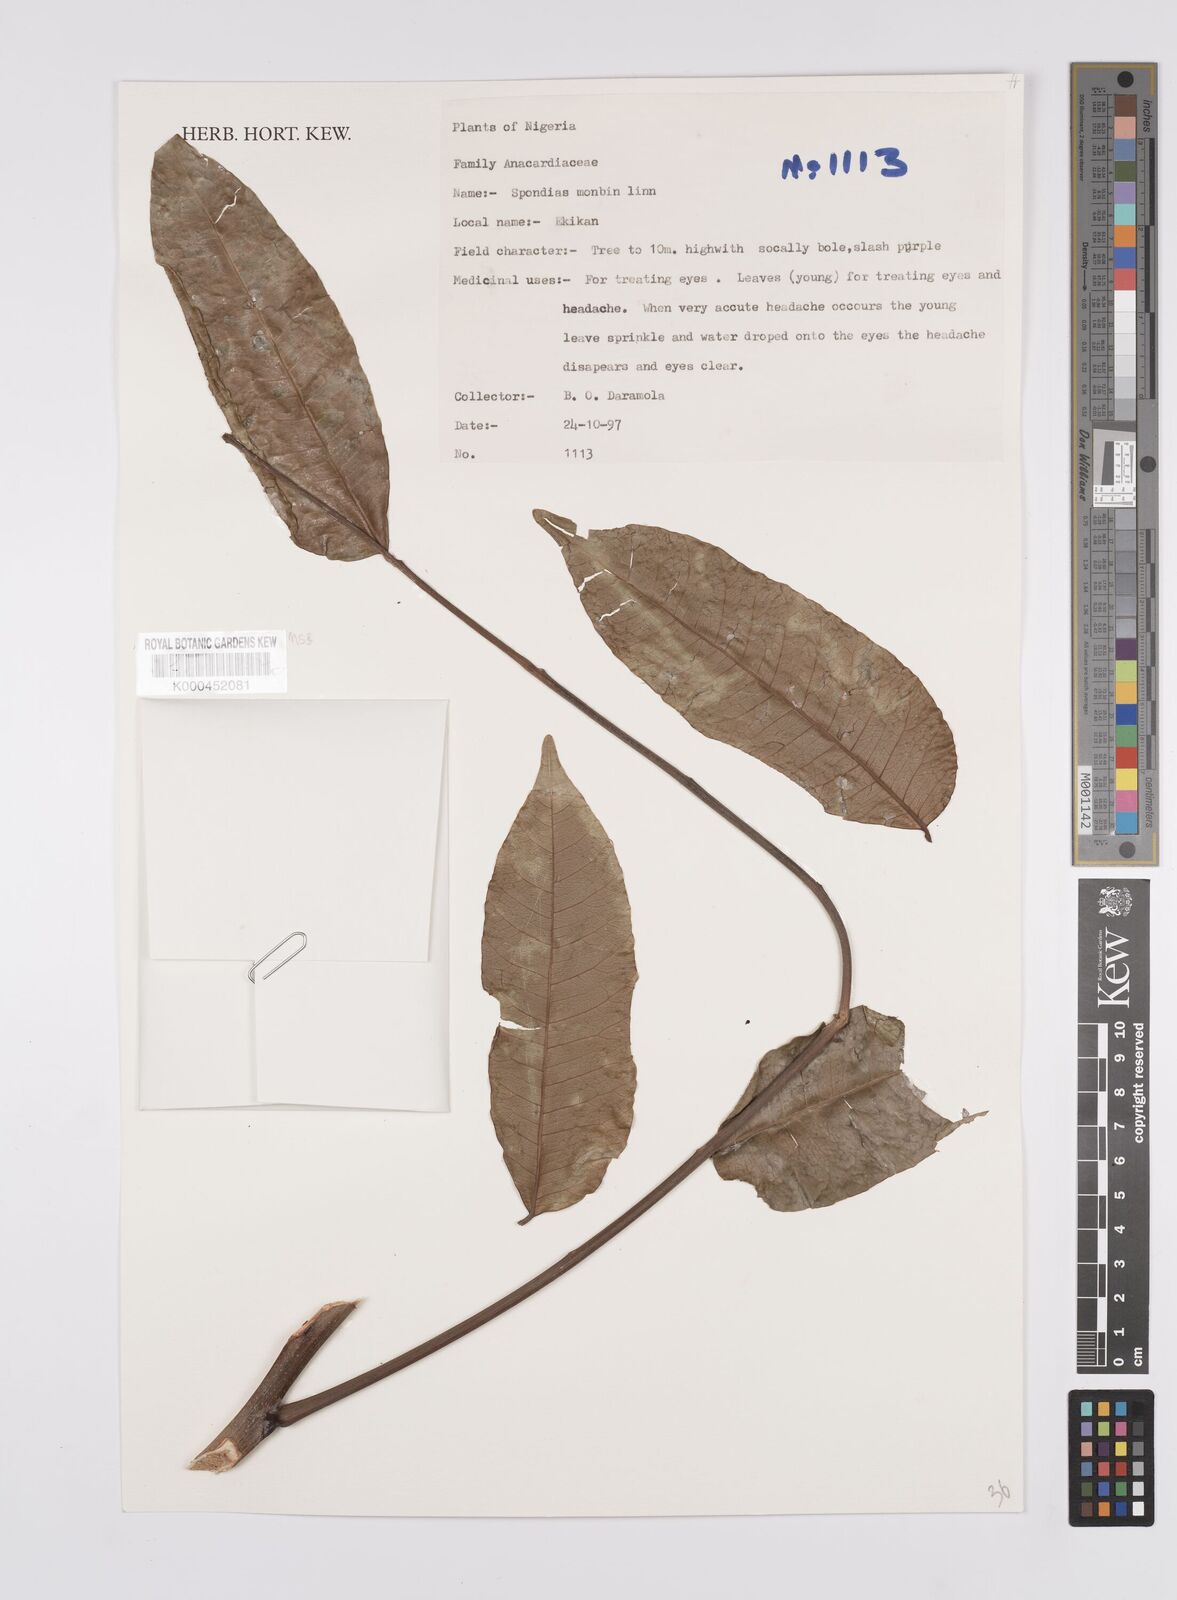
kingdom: Plantae
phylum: Tracheophyta
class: Magnoliopsida
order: Sapindales
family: Anacardiaceae
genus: Spondias
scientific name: Spondias mombin
